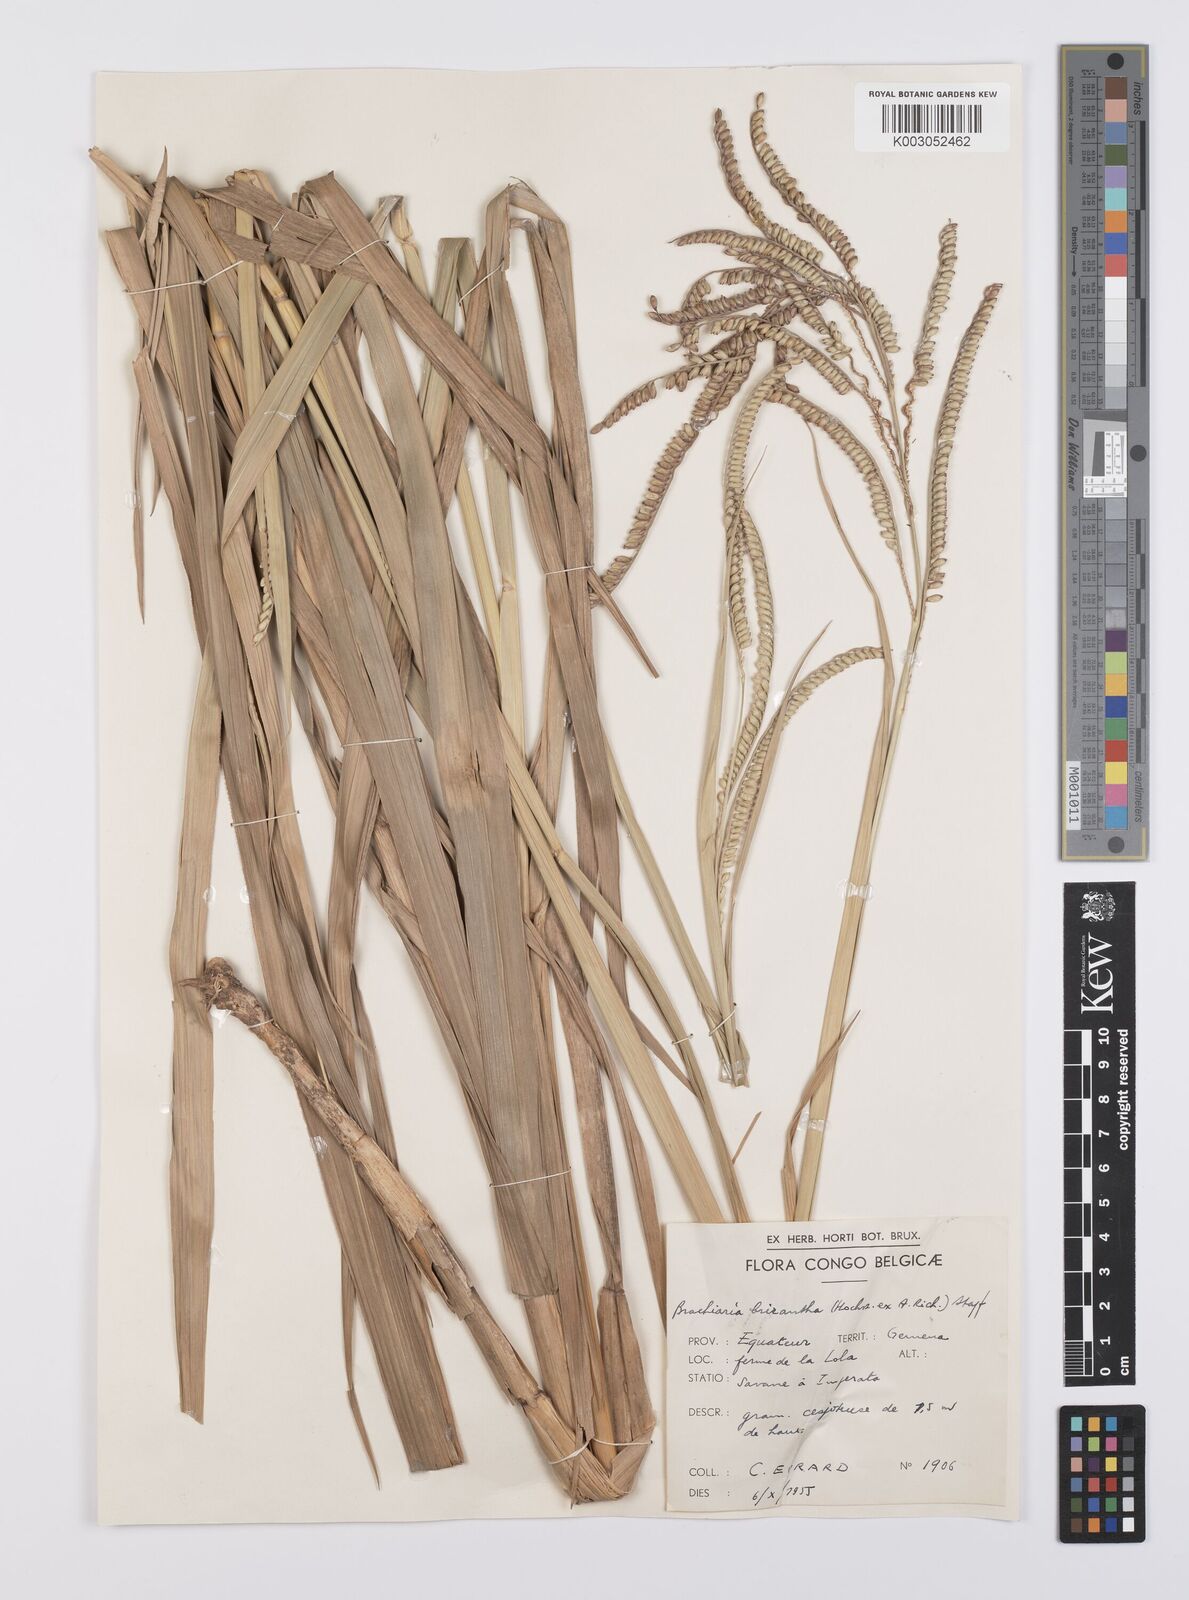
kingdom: Plantae
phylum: Tracheophyta
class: Liliopsida
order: Poales
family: Poaceae
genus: Urochloa
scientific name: Urochloa brizantha
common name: Palisade signalgrass
